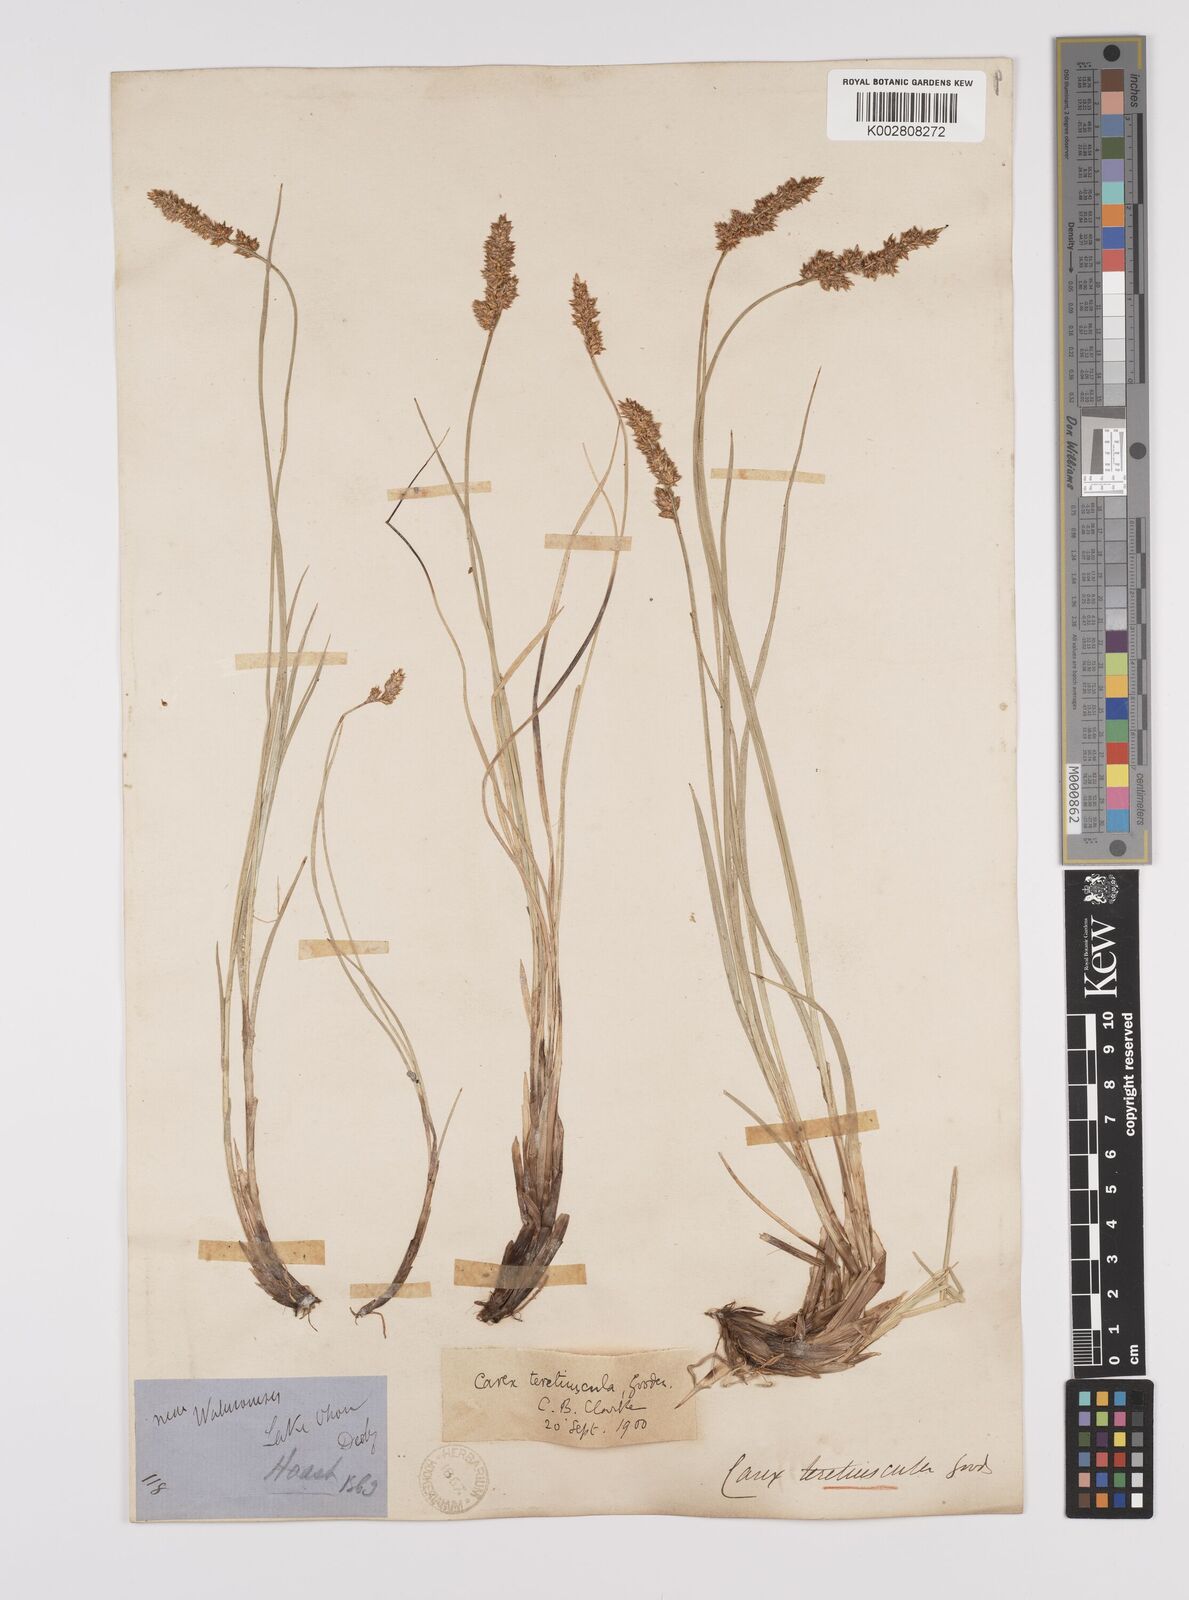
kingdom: Plantae
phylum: Tracheophyta
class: Liliopsida
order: Poales
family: Cyperaceae
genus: Carex
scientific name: Carex diandra
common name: Lesser tussock-sedge
